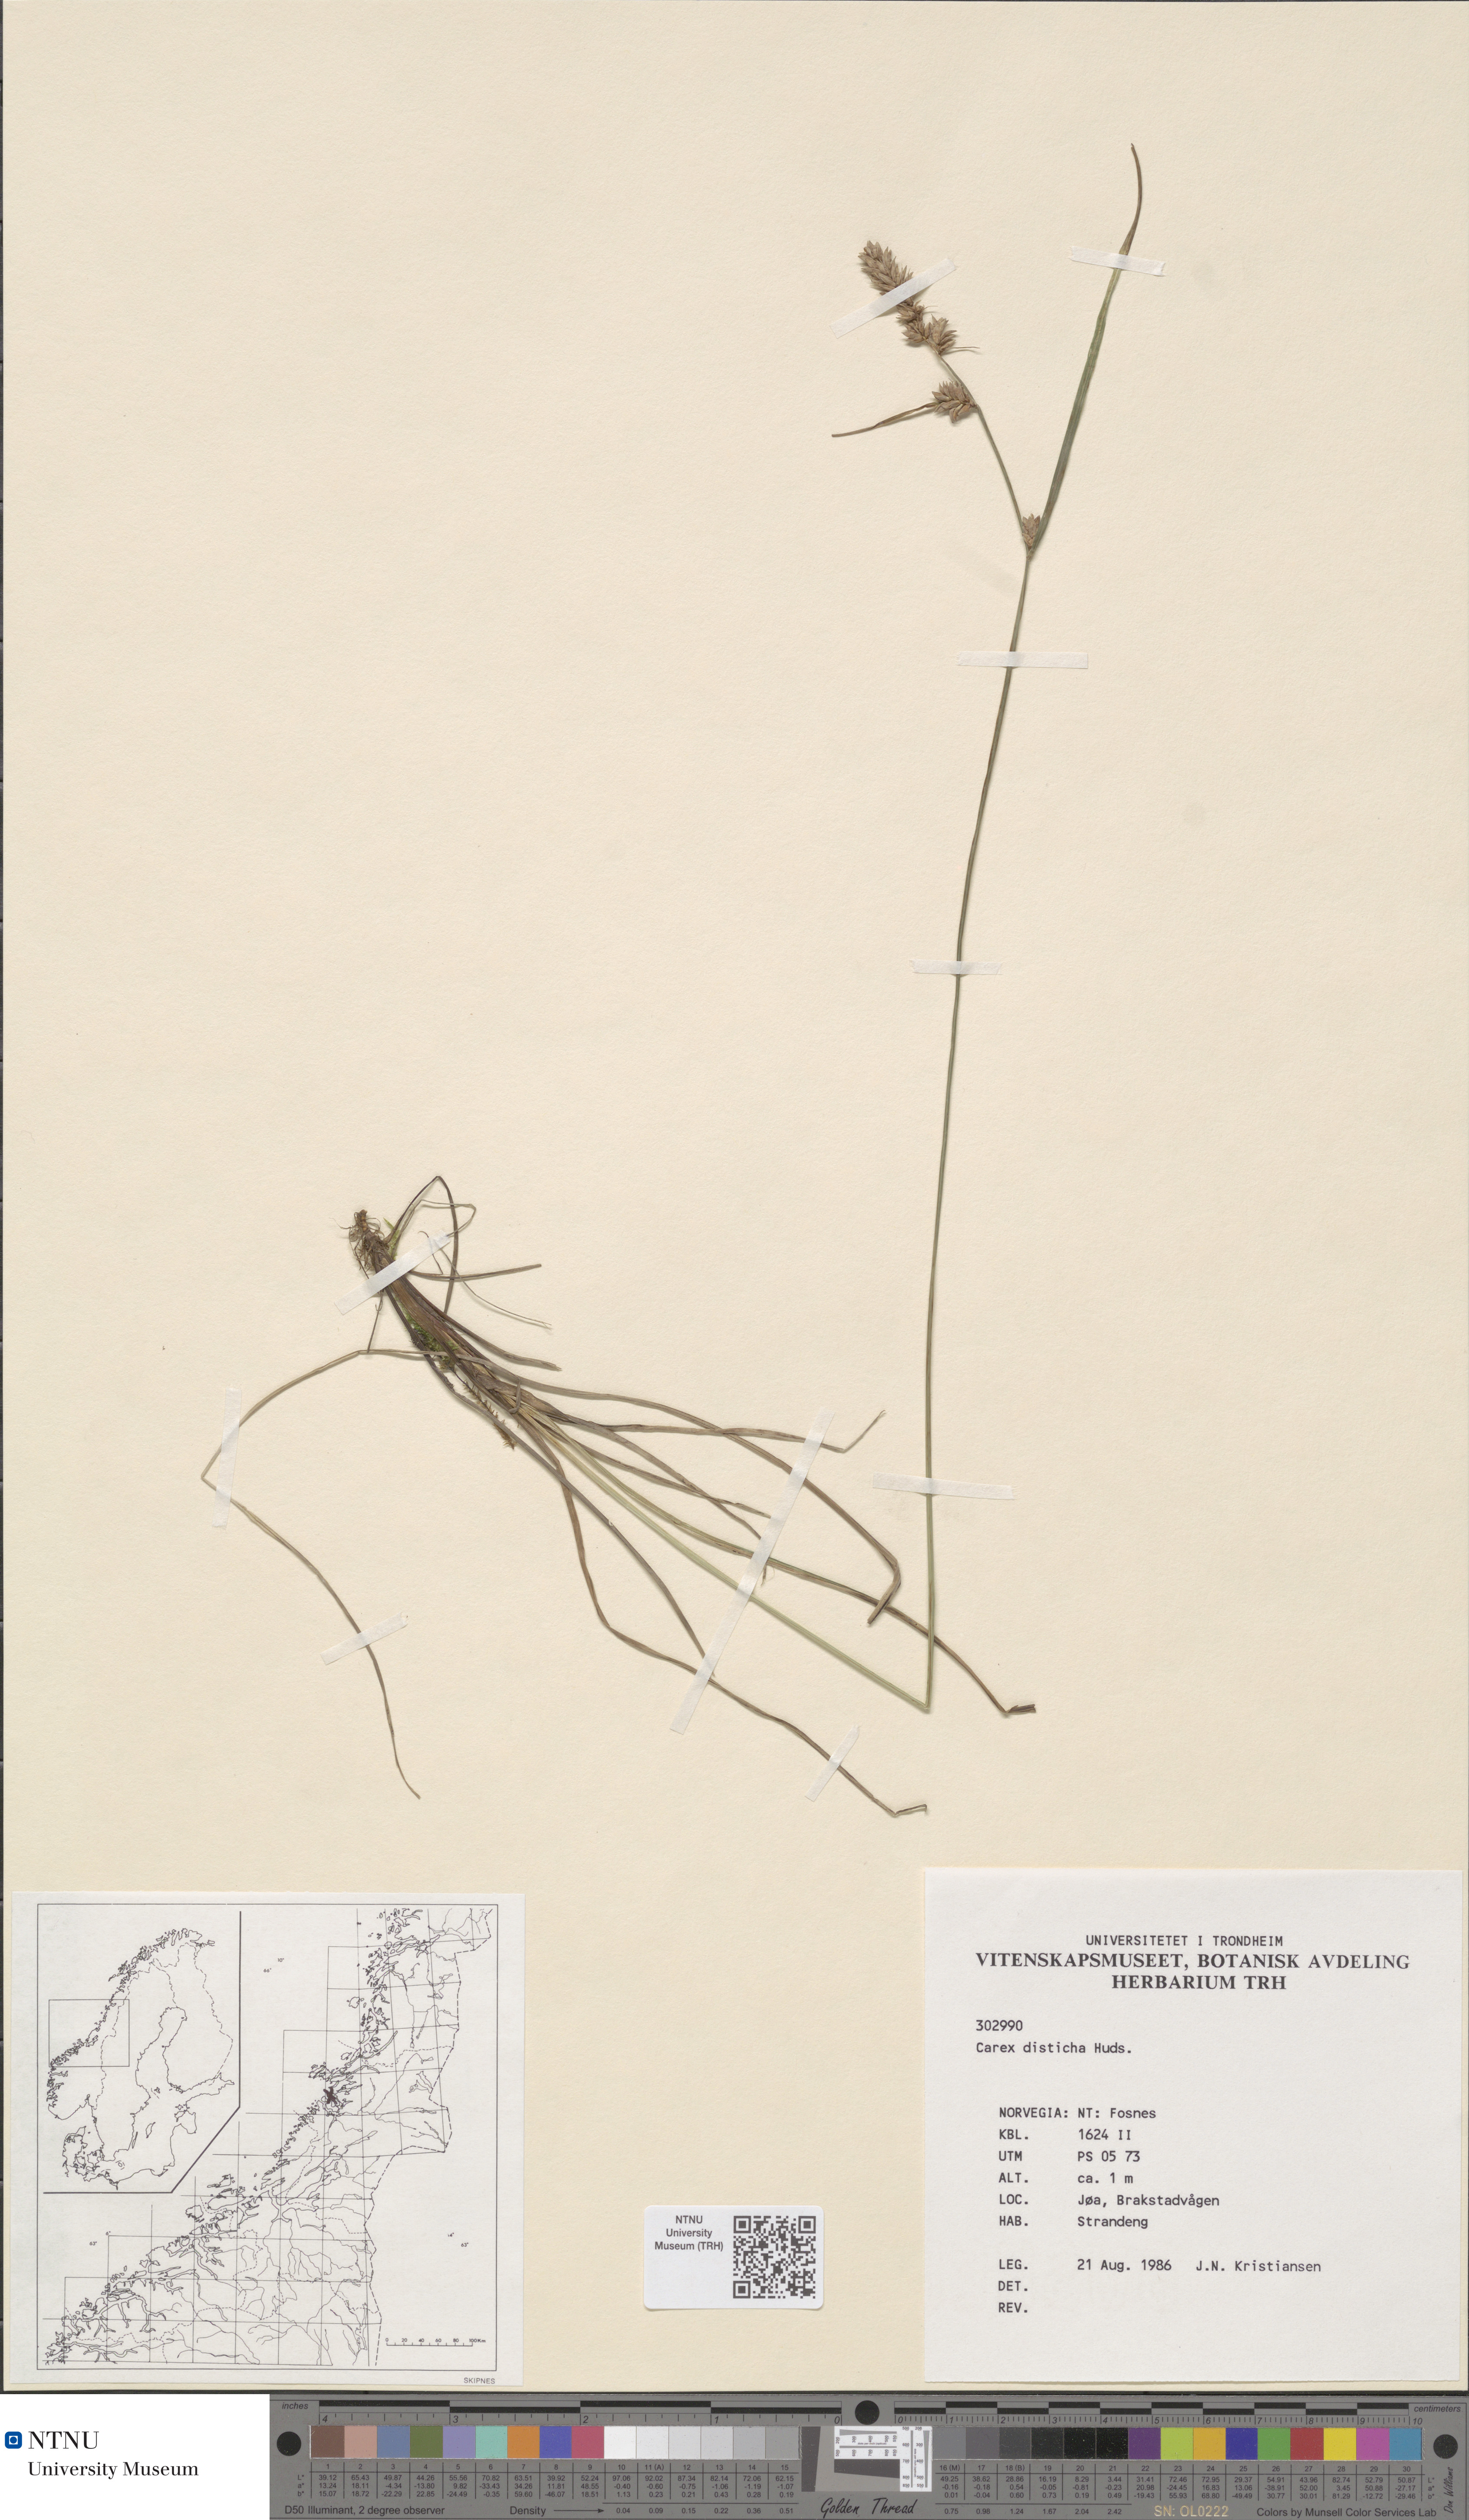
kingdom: Plantae
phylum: Tracheophyta
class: Liliopsida
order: Poales
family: Cyperaceae
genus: Carex
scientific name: Carex disticha
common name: Brown sedge
